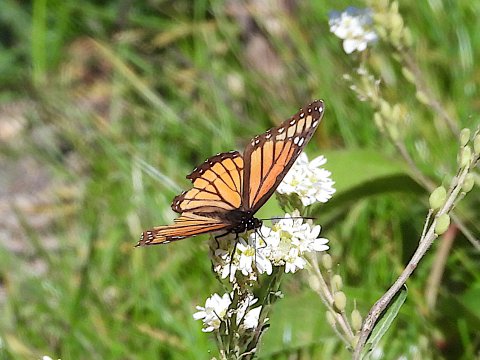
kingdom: Animalia
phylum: Arthropoda
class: Insecta
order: Lepidoptera
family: Nymphalidae
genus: Limenitis
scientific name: Limenitis archippus
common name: Viceroy
